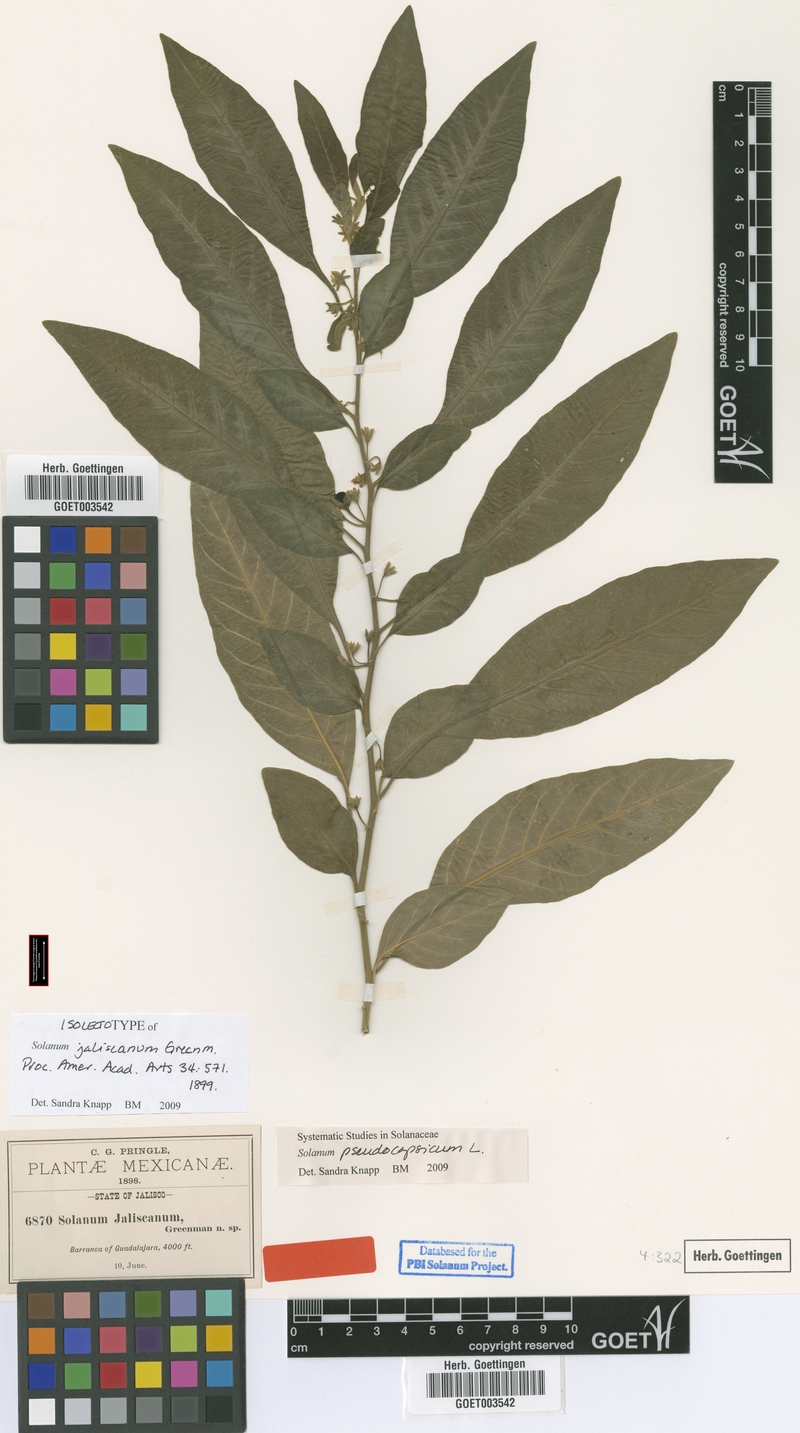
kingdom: Plantae
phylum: Tracheophyta
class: Magnoliopsida
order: Solanales
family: Solanaceae
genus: Solanum
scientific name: Solanum pseudocapsicum
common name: Jerusalem cherry
